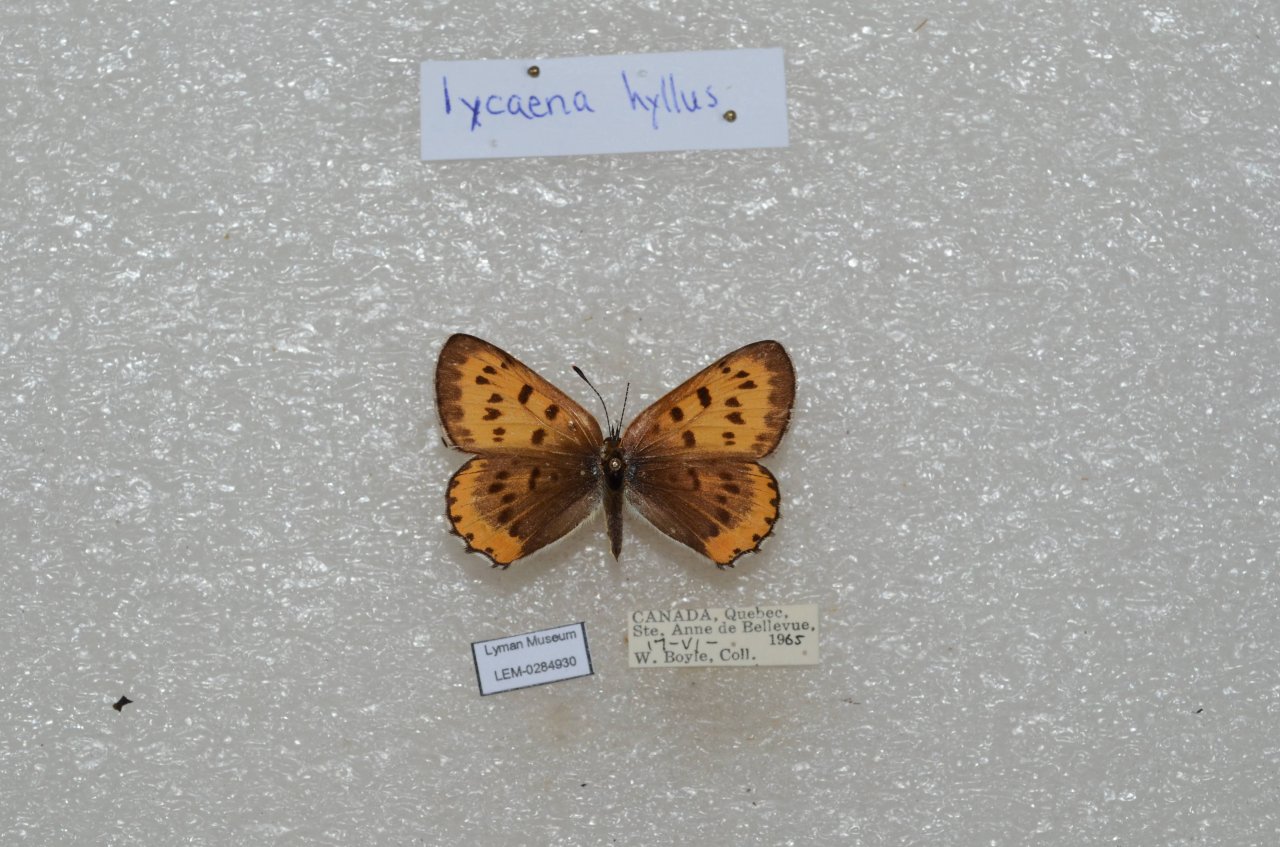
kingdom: Animalia
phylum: Arthropoda
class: Insecta
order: Lepidoptera
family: Sesiidae
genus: Sesia
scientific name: Sesia Lycaena hyllus
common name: Bronze Copper
